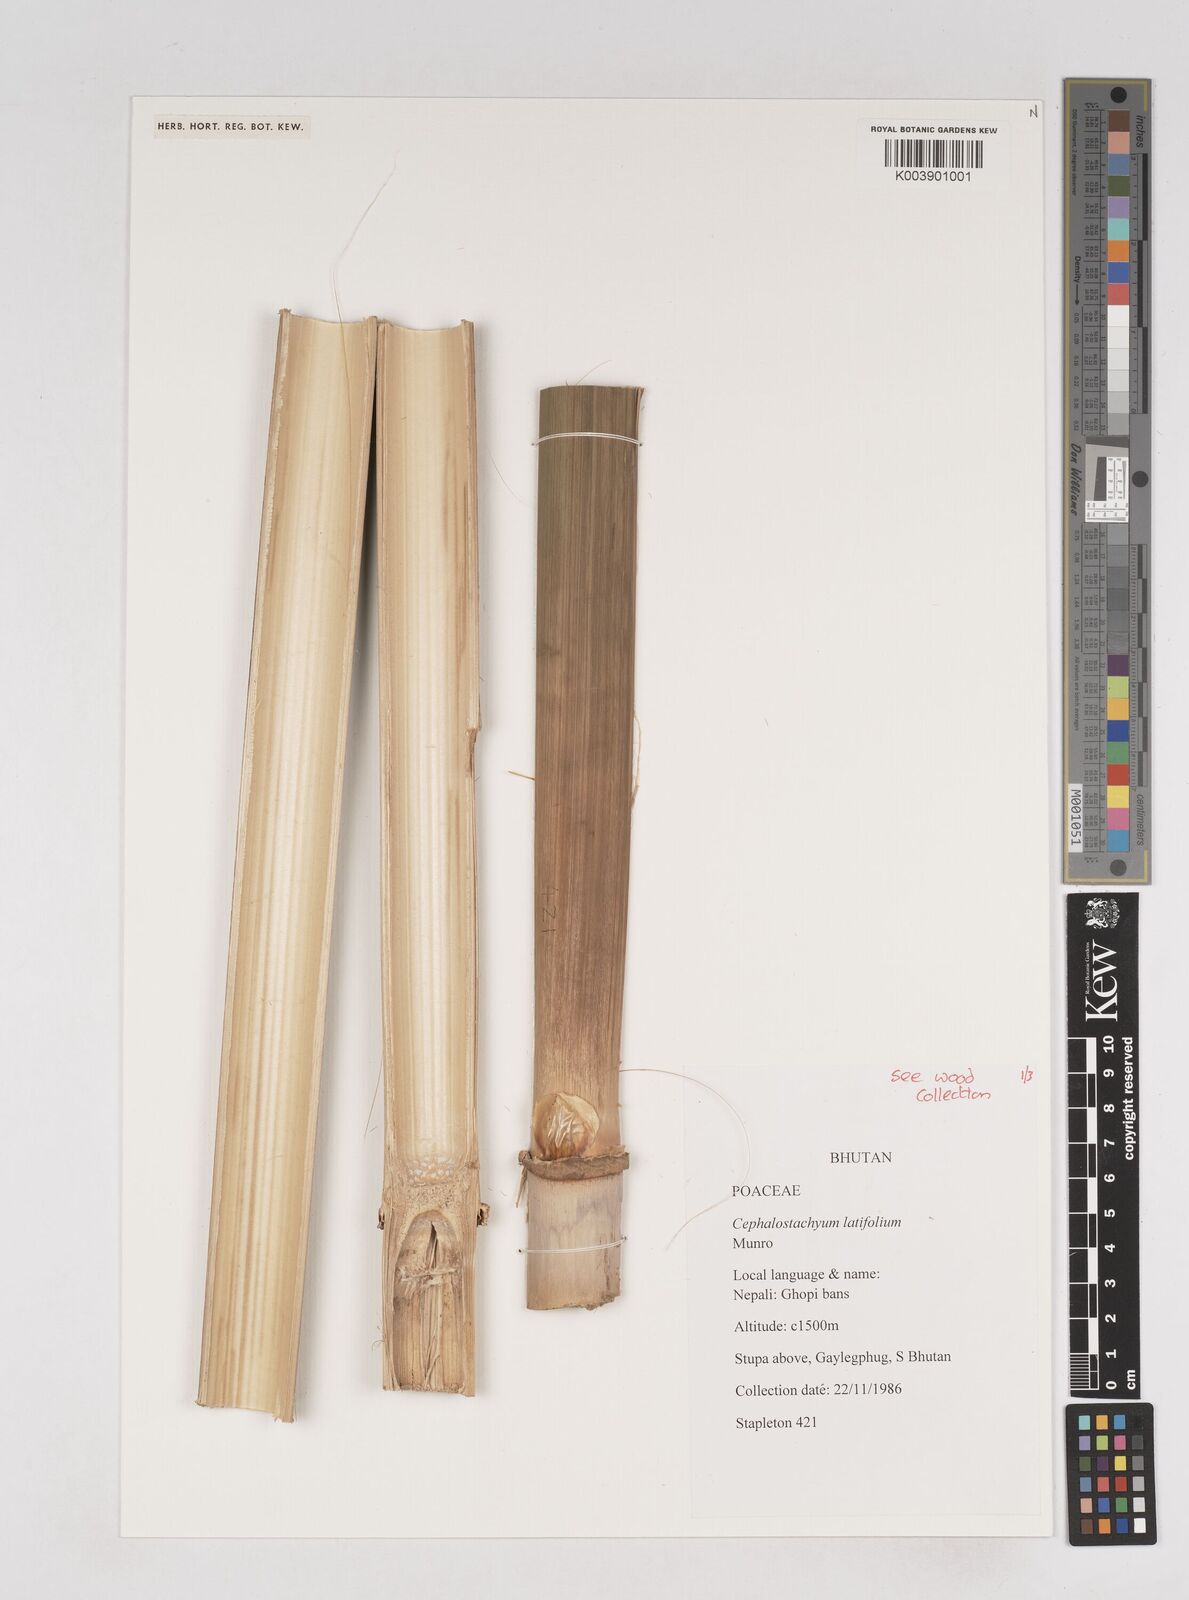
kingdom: Plantae
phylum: Tracheophyta
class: Liliopsida
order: Poales
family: Poaceae
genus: Cephalostachyum
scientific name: Cephalostachyum latifolium
